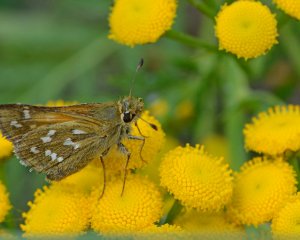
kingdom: Animalia
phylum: Arthropoda
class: Insecta
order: Lepidoptera
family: Hesperiidae
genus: Hesperia
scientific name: Hesperia comma
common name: Common Branded Skipper
